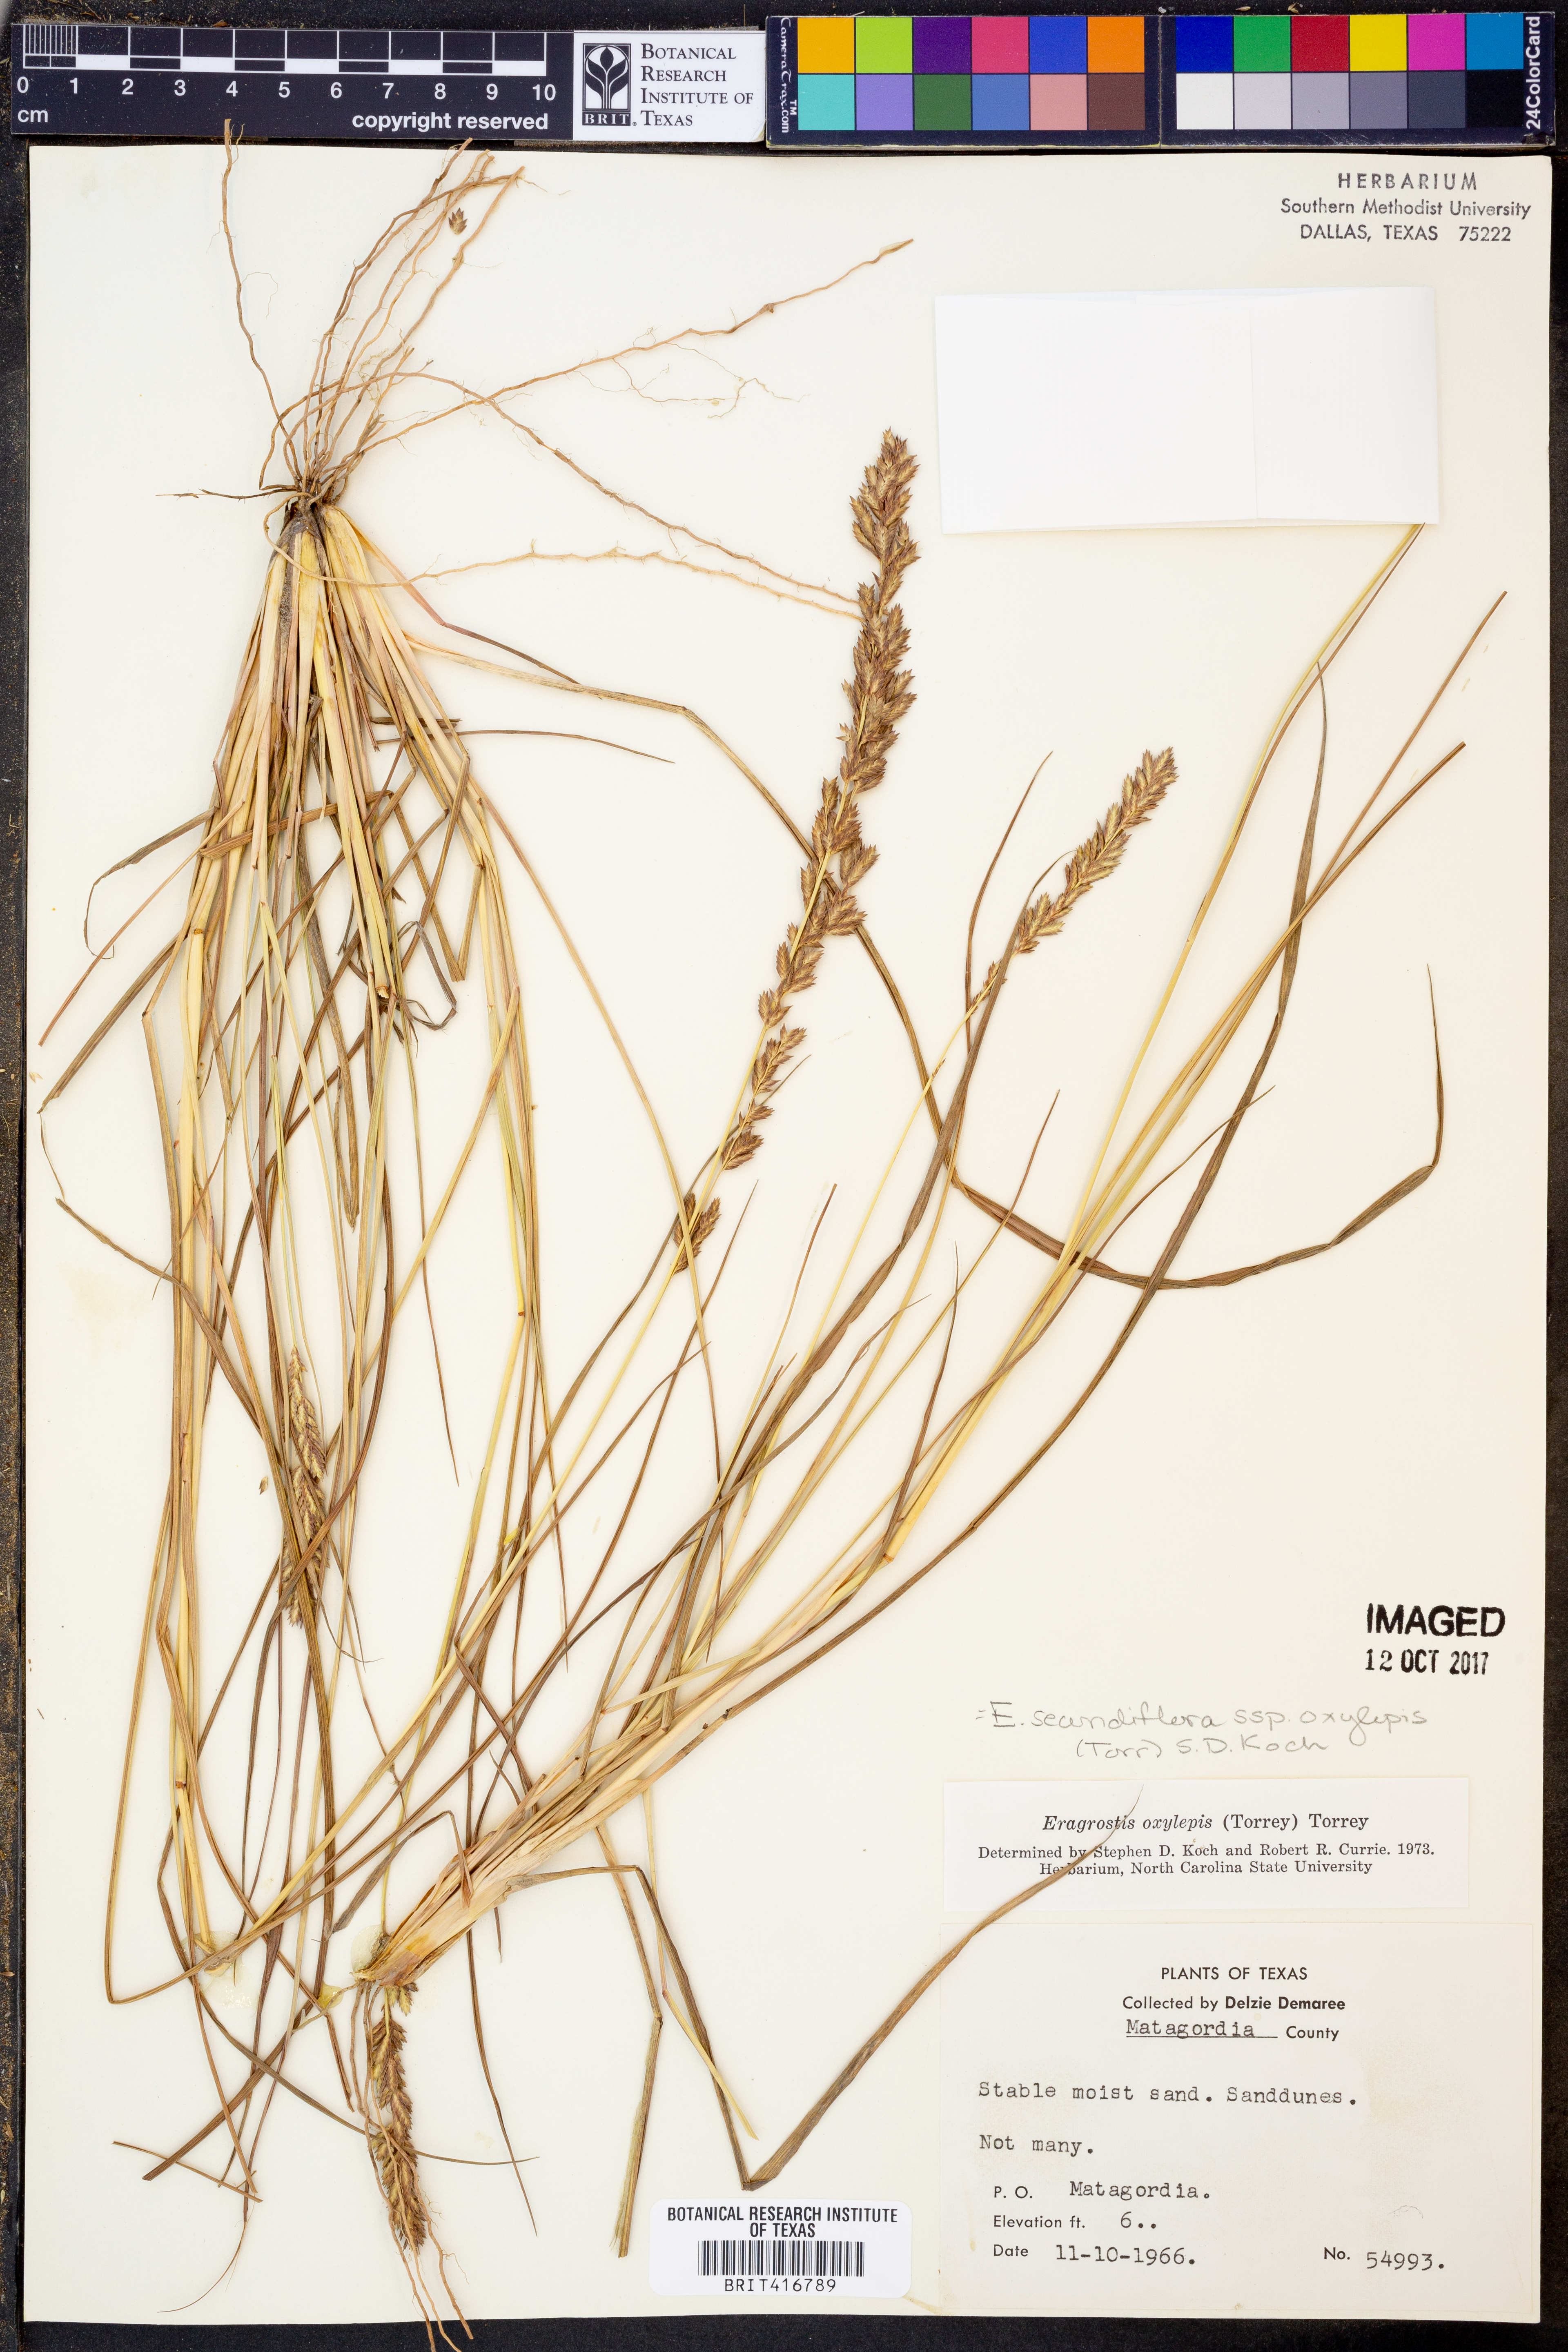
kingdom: Plantae
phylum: Tracheophyta
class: Liliopsida
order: Poales
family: Poaceae
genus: Eragrostis
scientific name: Eragrostis secundiflora
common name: Red love grass
